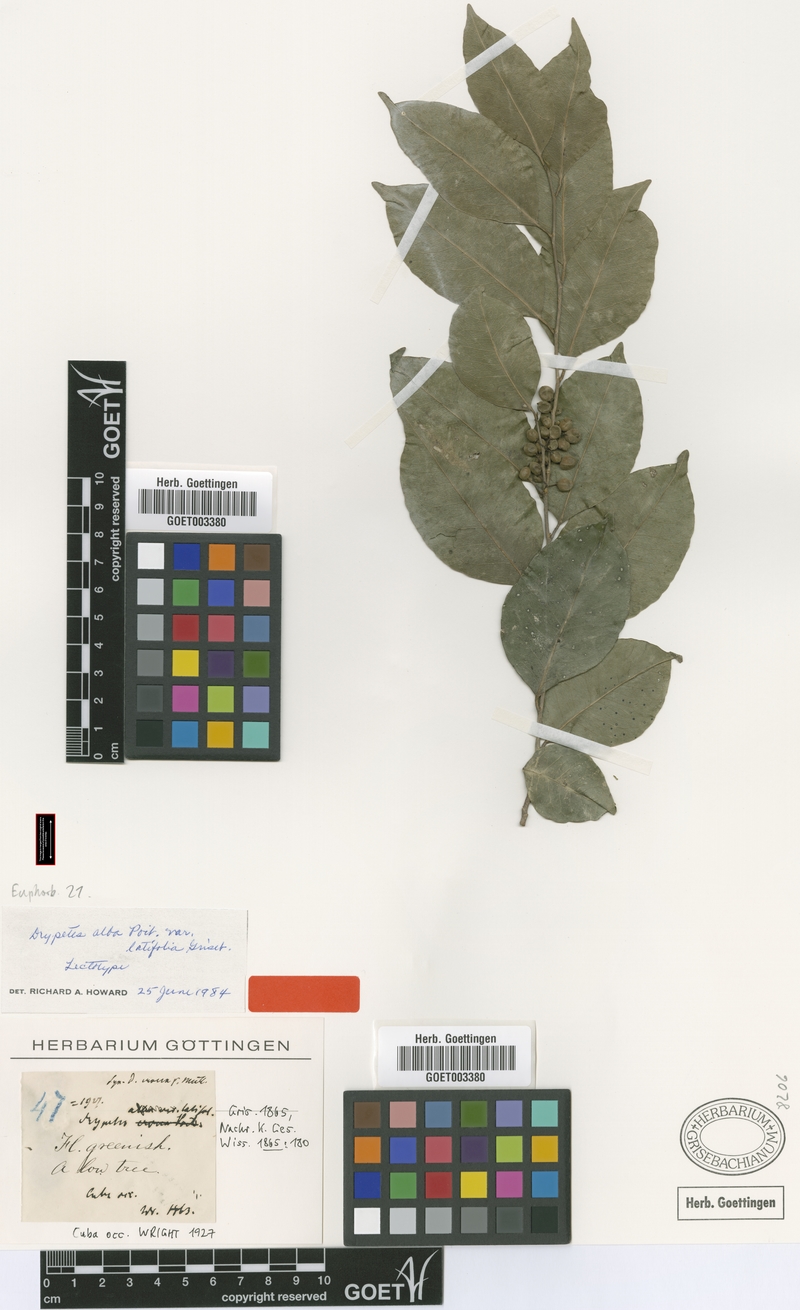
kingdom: Plantae
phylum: Tracheophyta
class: Magnoliopsida
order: Malpighiales
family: Putranjivaceae
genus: Drypetes
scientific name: Drypetes alba
